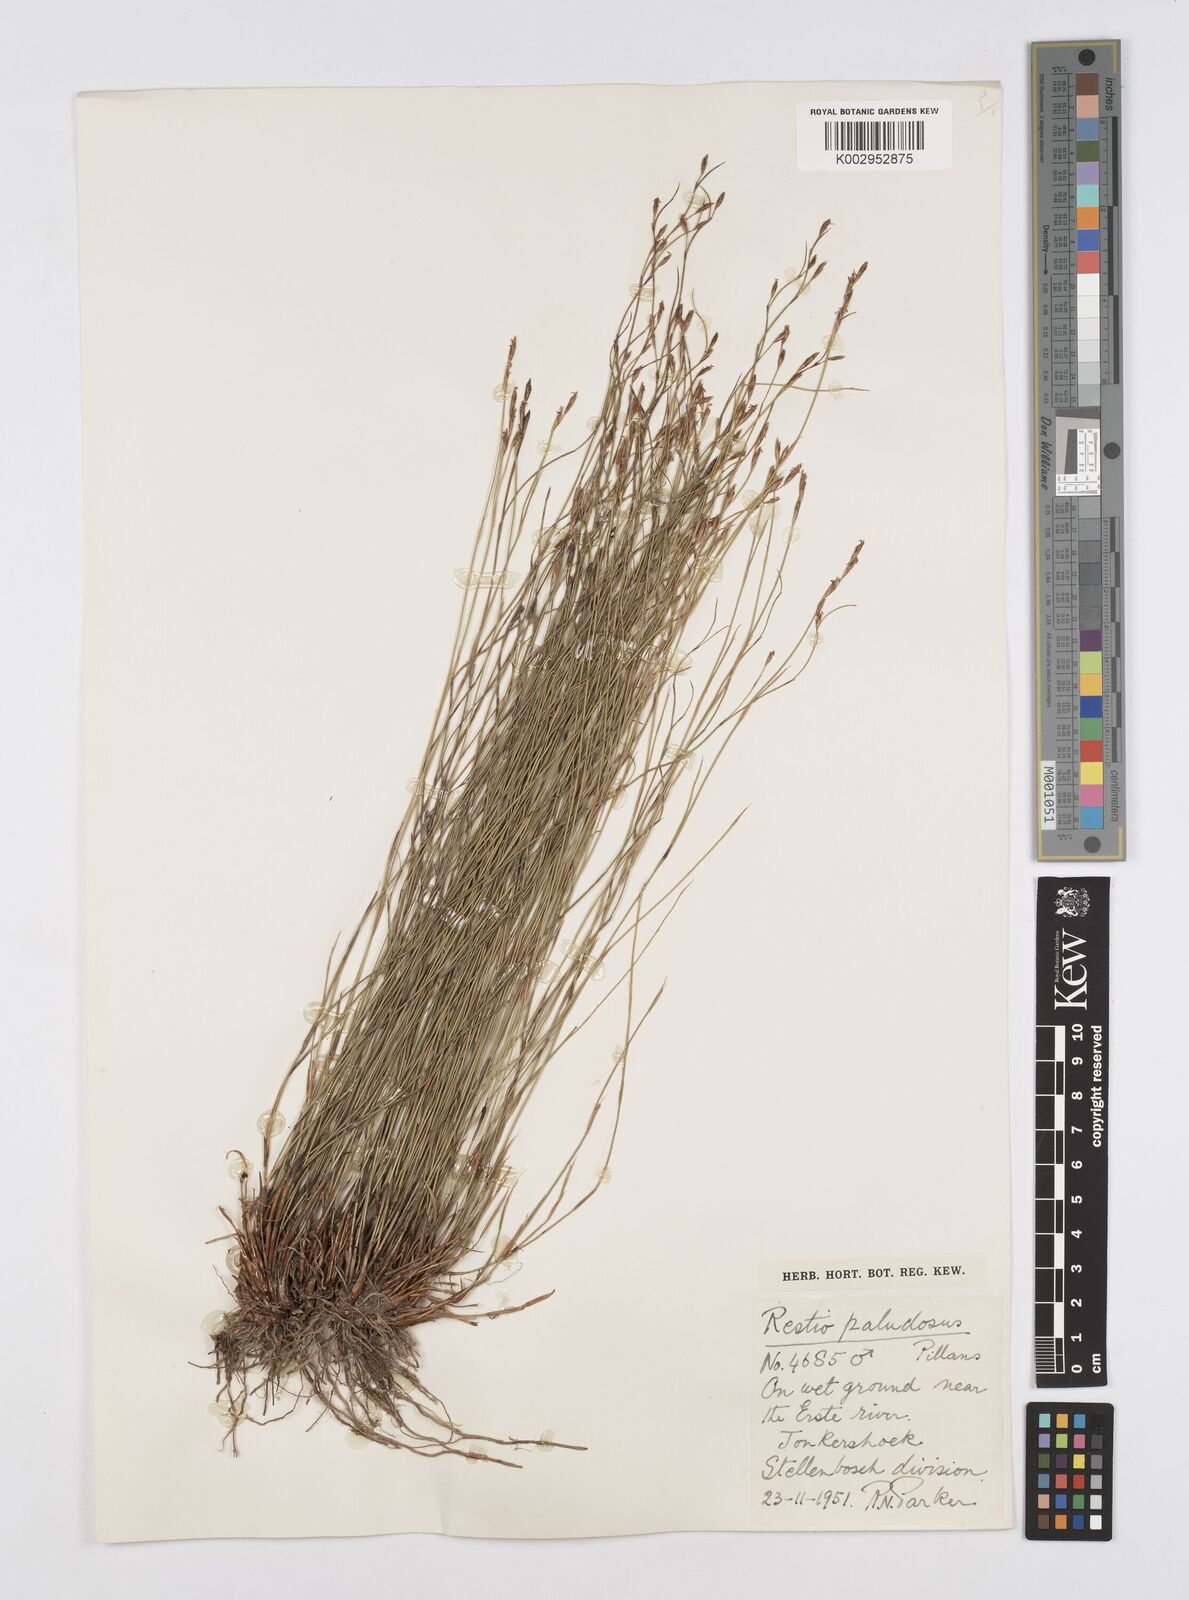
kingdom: Plantae
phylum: Tracheophyta
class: Liliopsida
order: Poales
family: Restionaceae
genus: Restio
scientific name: Restio paludosus
